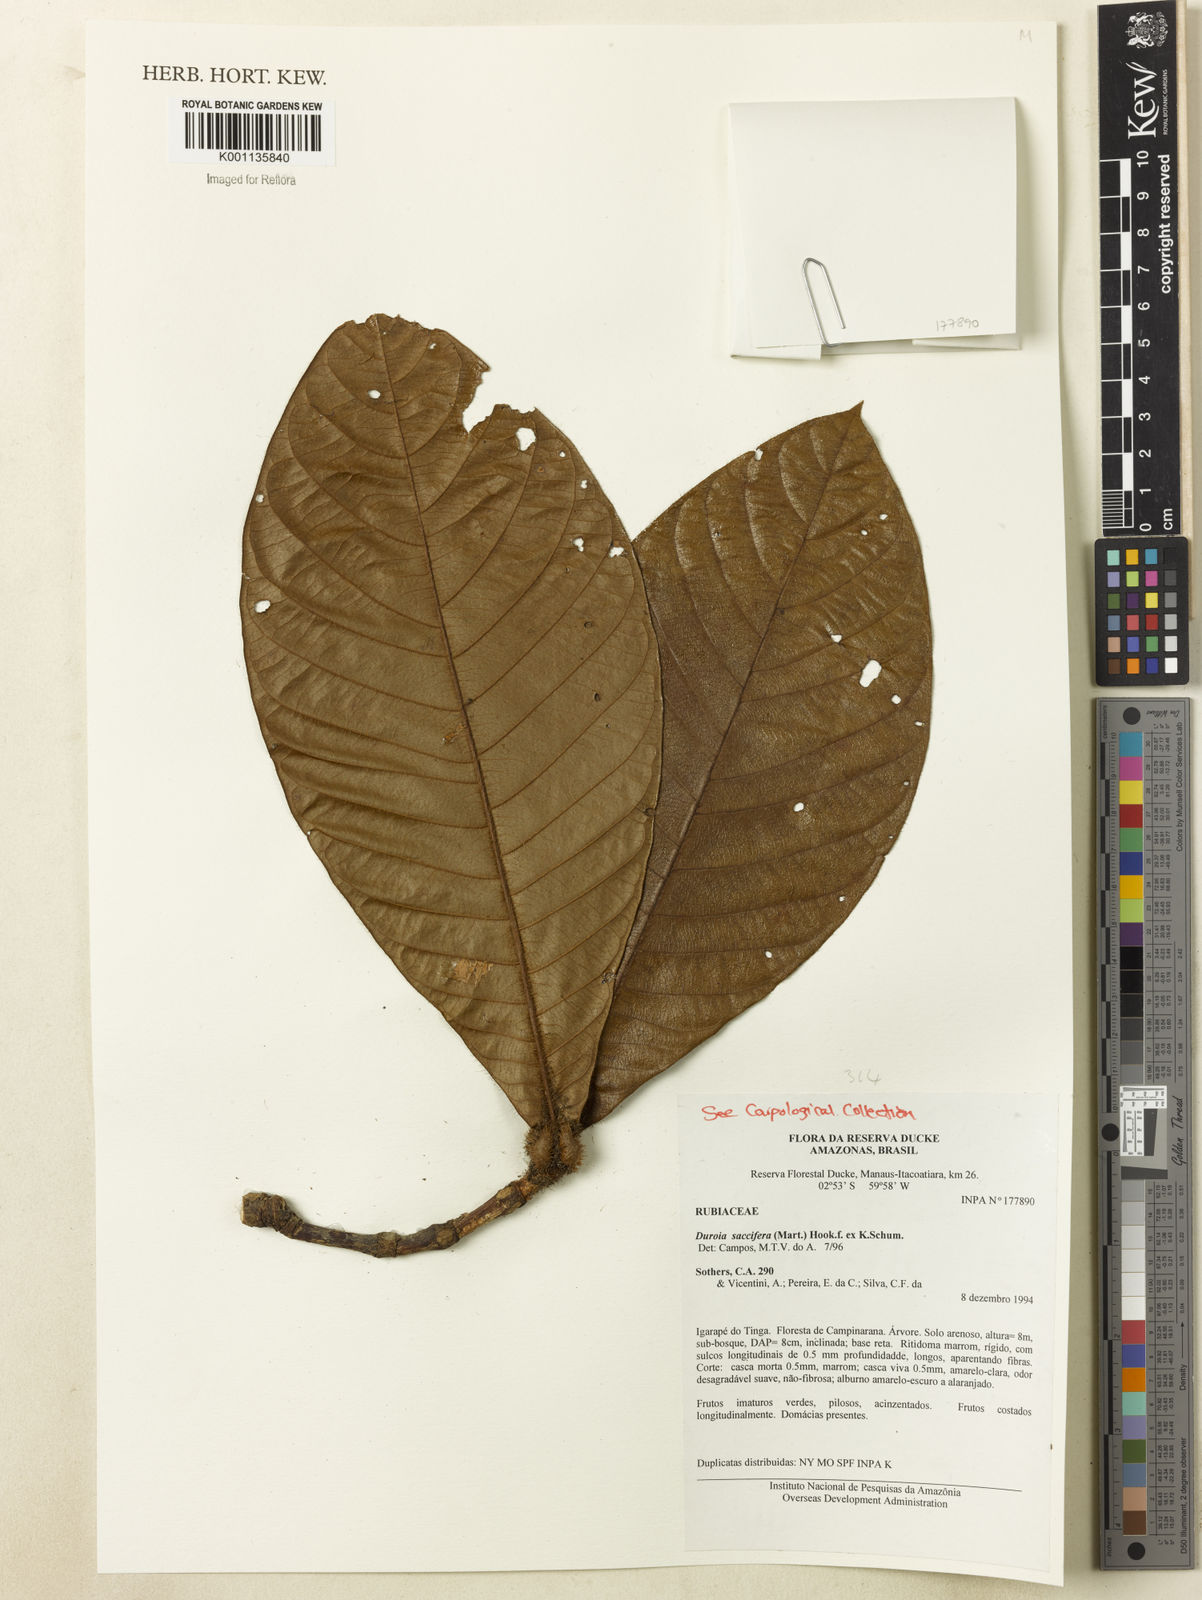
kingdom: Plantae
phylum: Tracheophyta
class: Magnoliopsida
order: Gentianales
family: Rubiaceae
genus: Duroia
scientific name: Duroia saccifera
